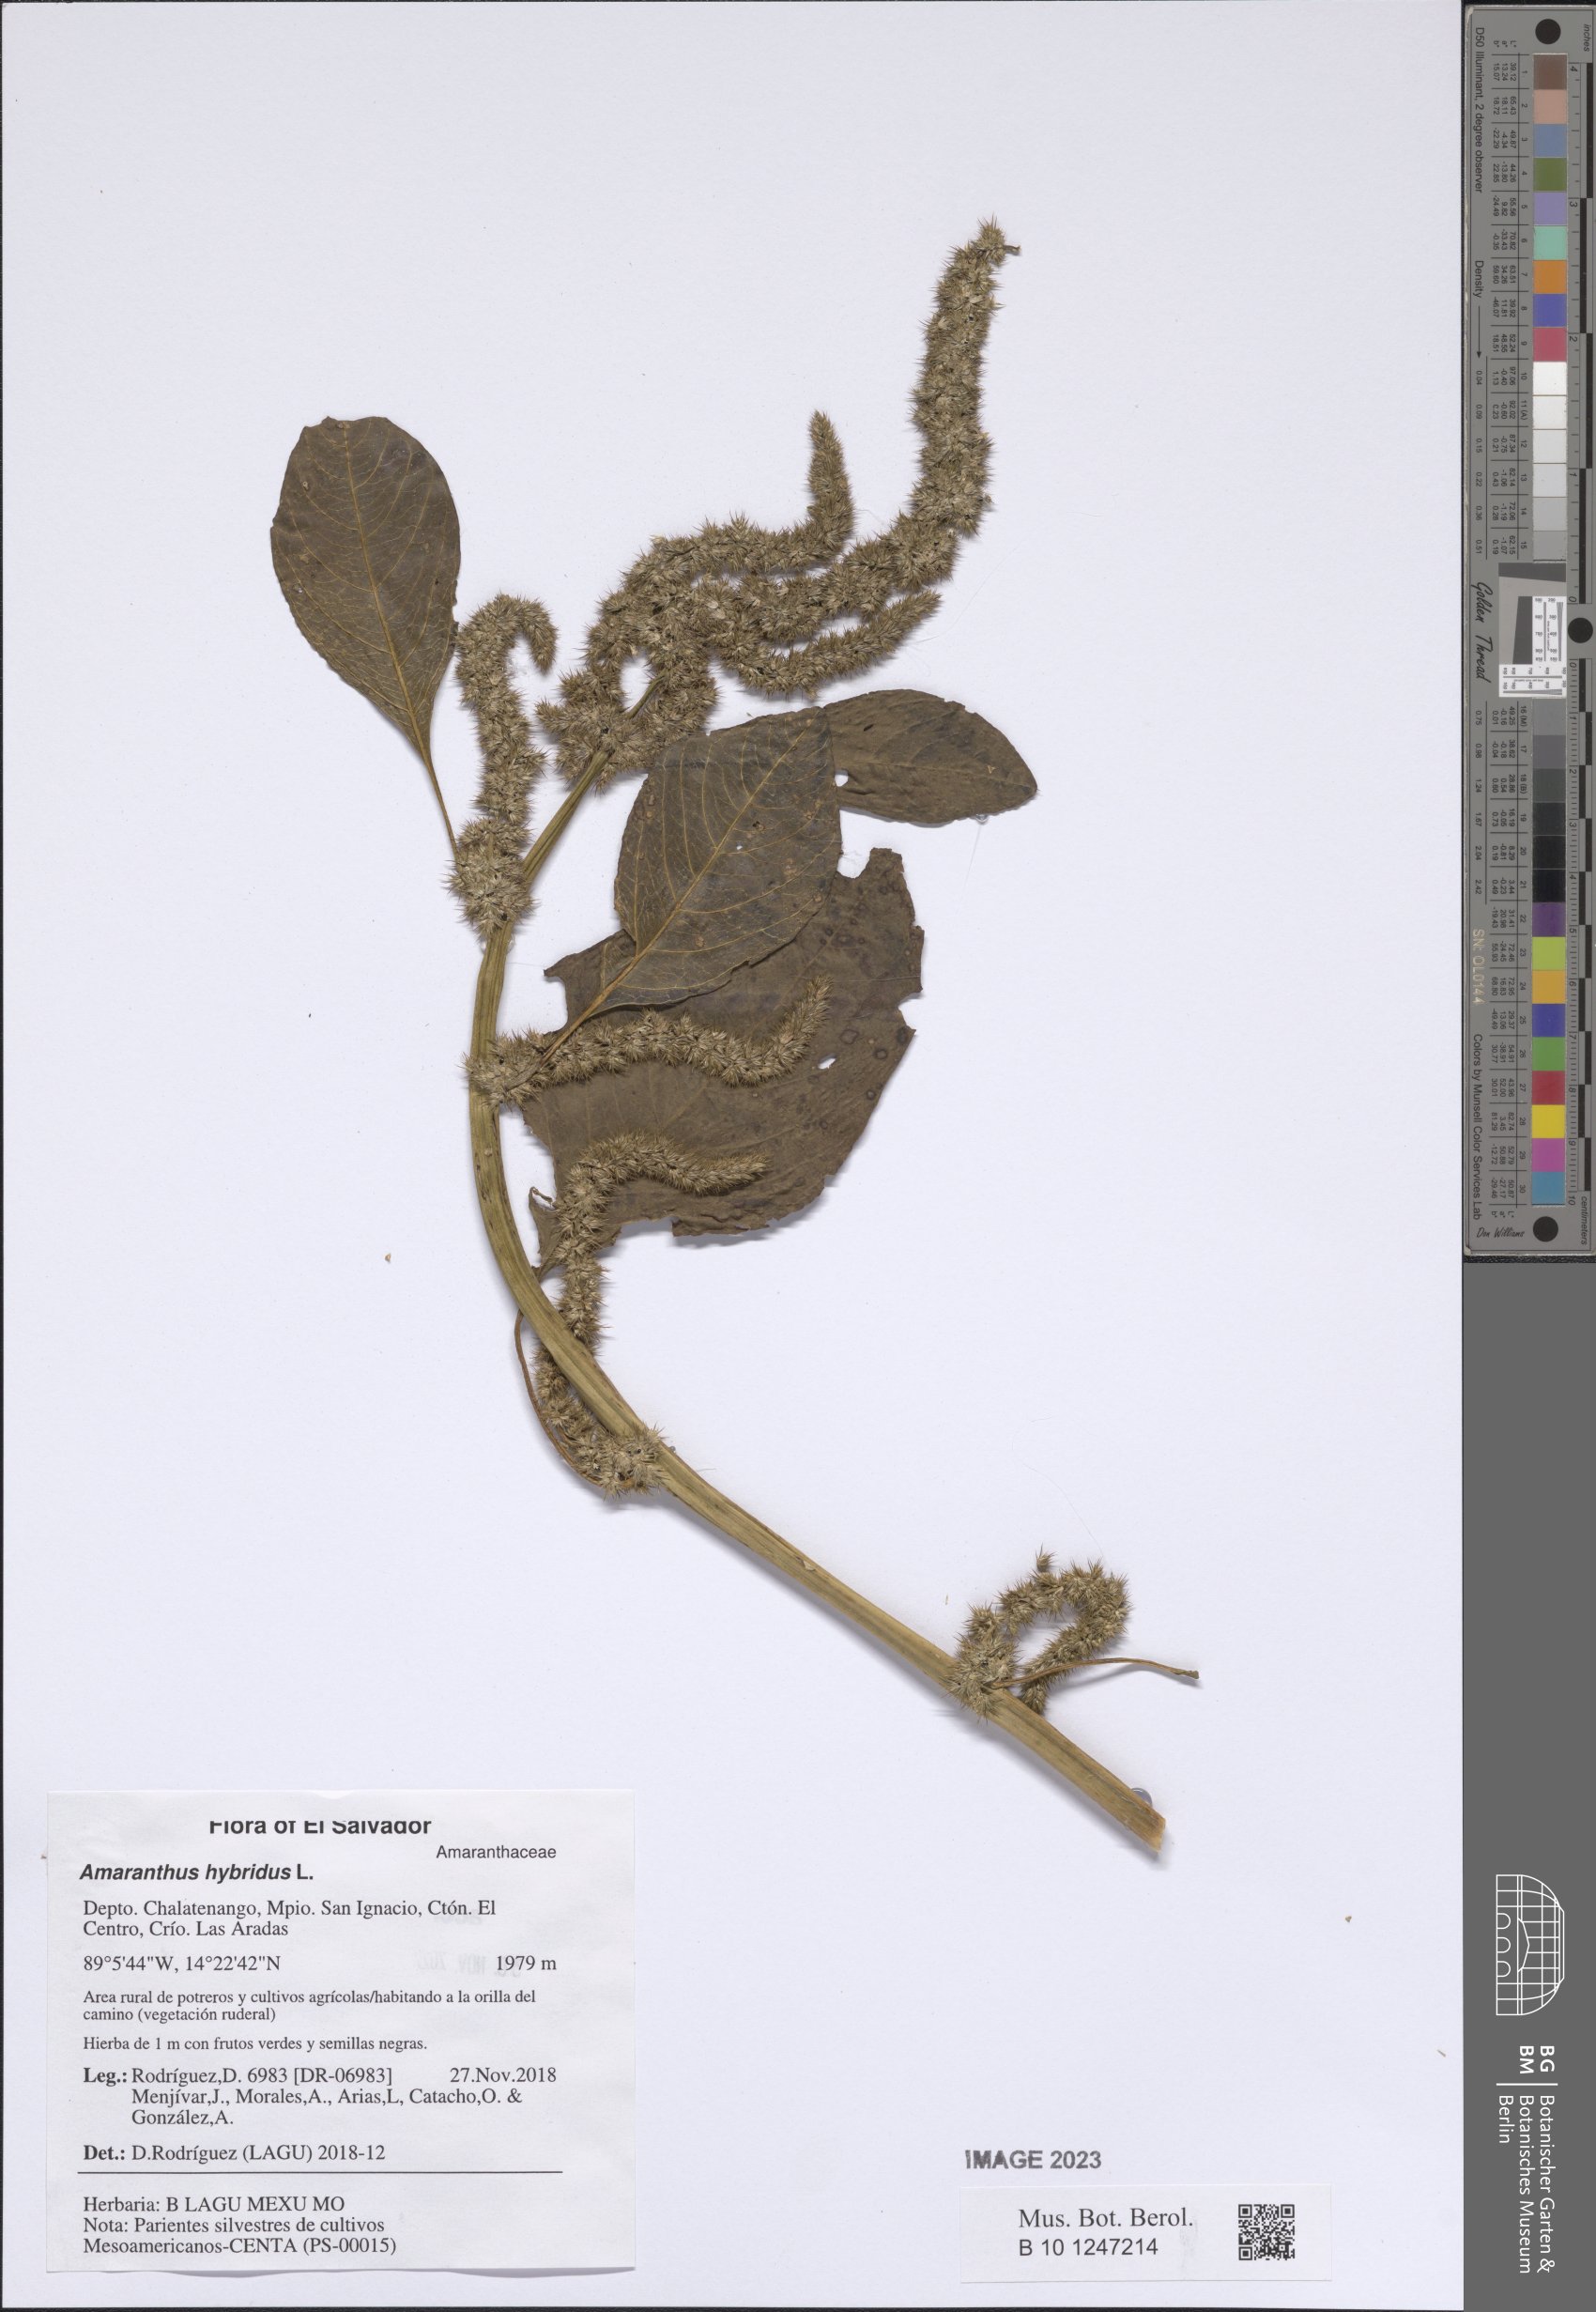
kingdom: Plantae
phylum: Tracheophyta
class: Magnoliopsida
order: Caryophyllales
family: Amaranthaceae
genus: Amaranthus
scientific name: Amaranthus hybridus
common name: Green amaranth
